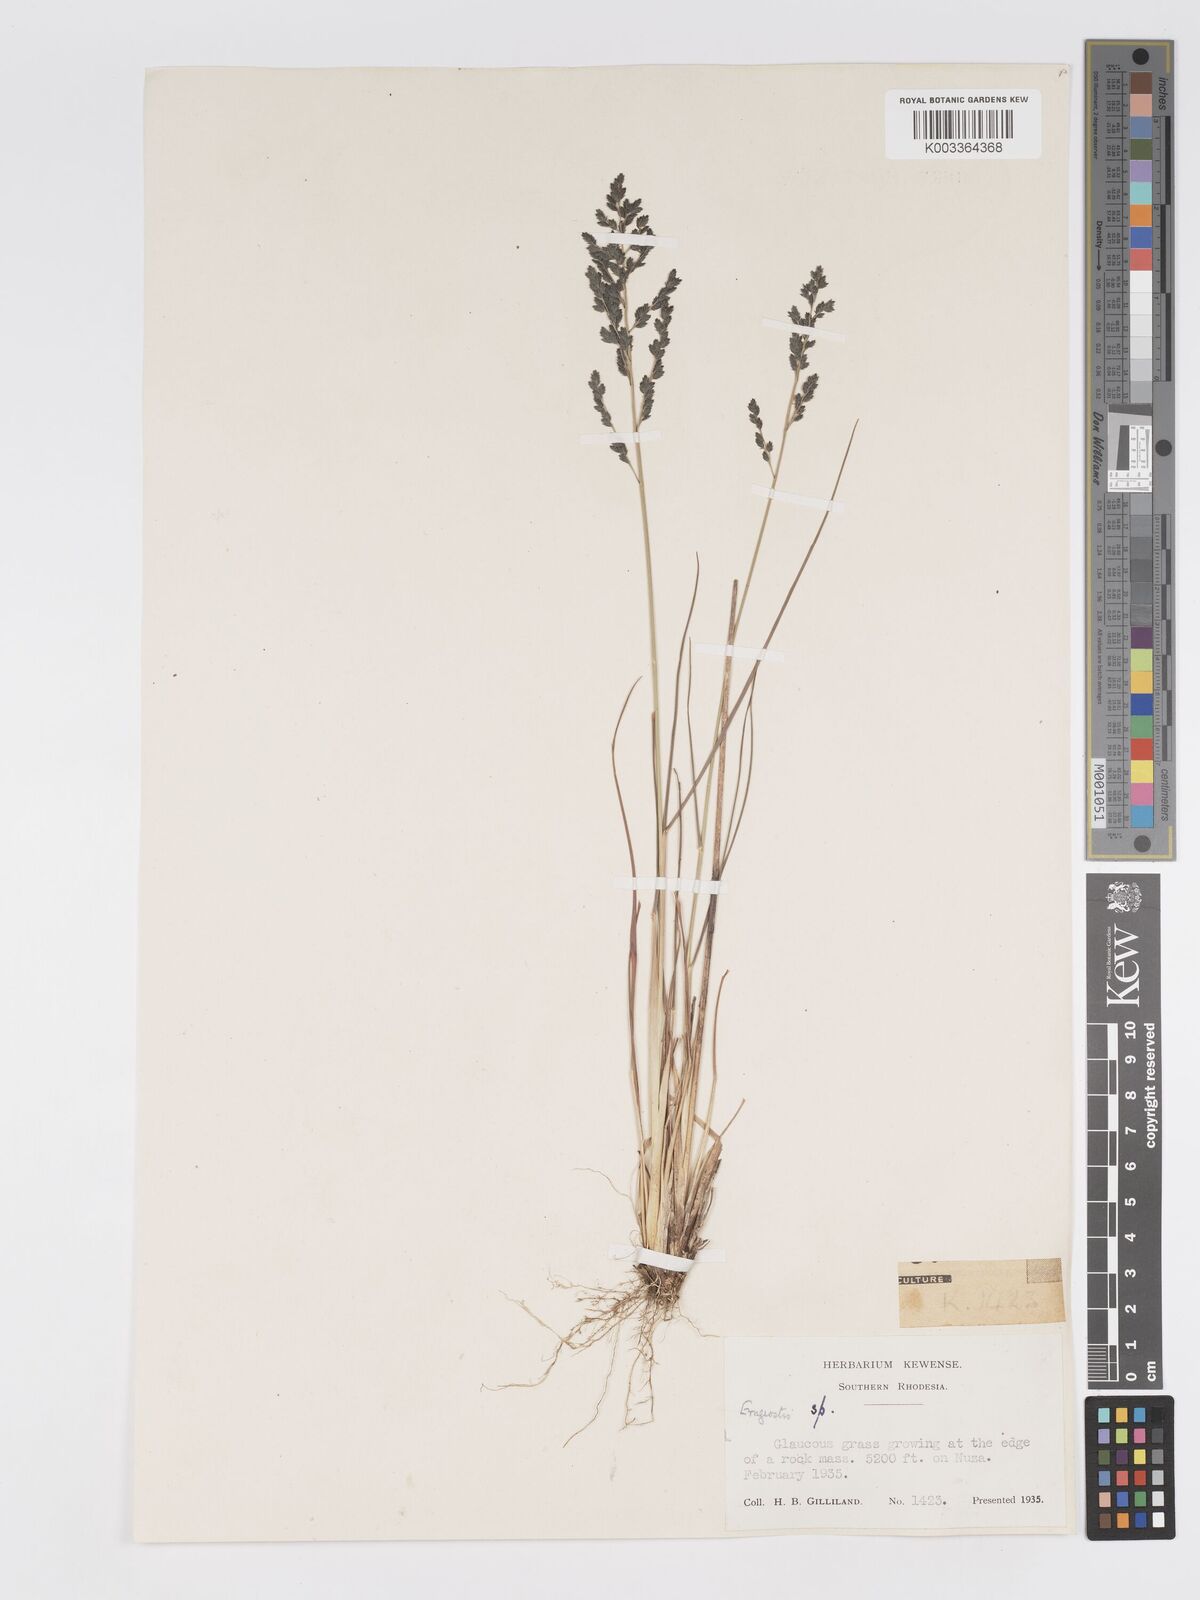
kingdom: Plantae
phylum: Tracheophyta
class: Liliopsida
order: Poales
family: Poaceae
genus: Eragrostis
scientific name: Eragrostis racemosa
